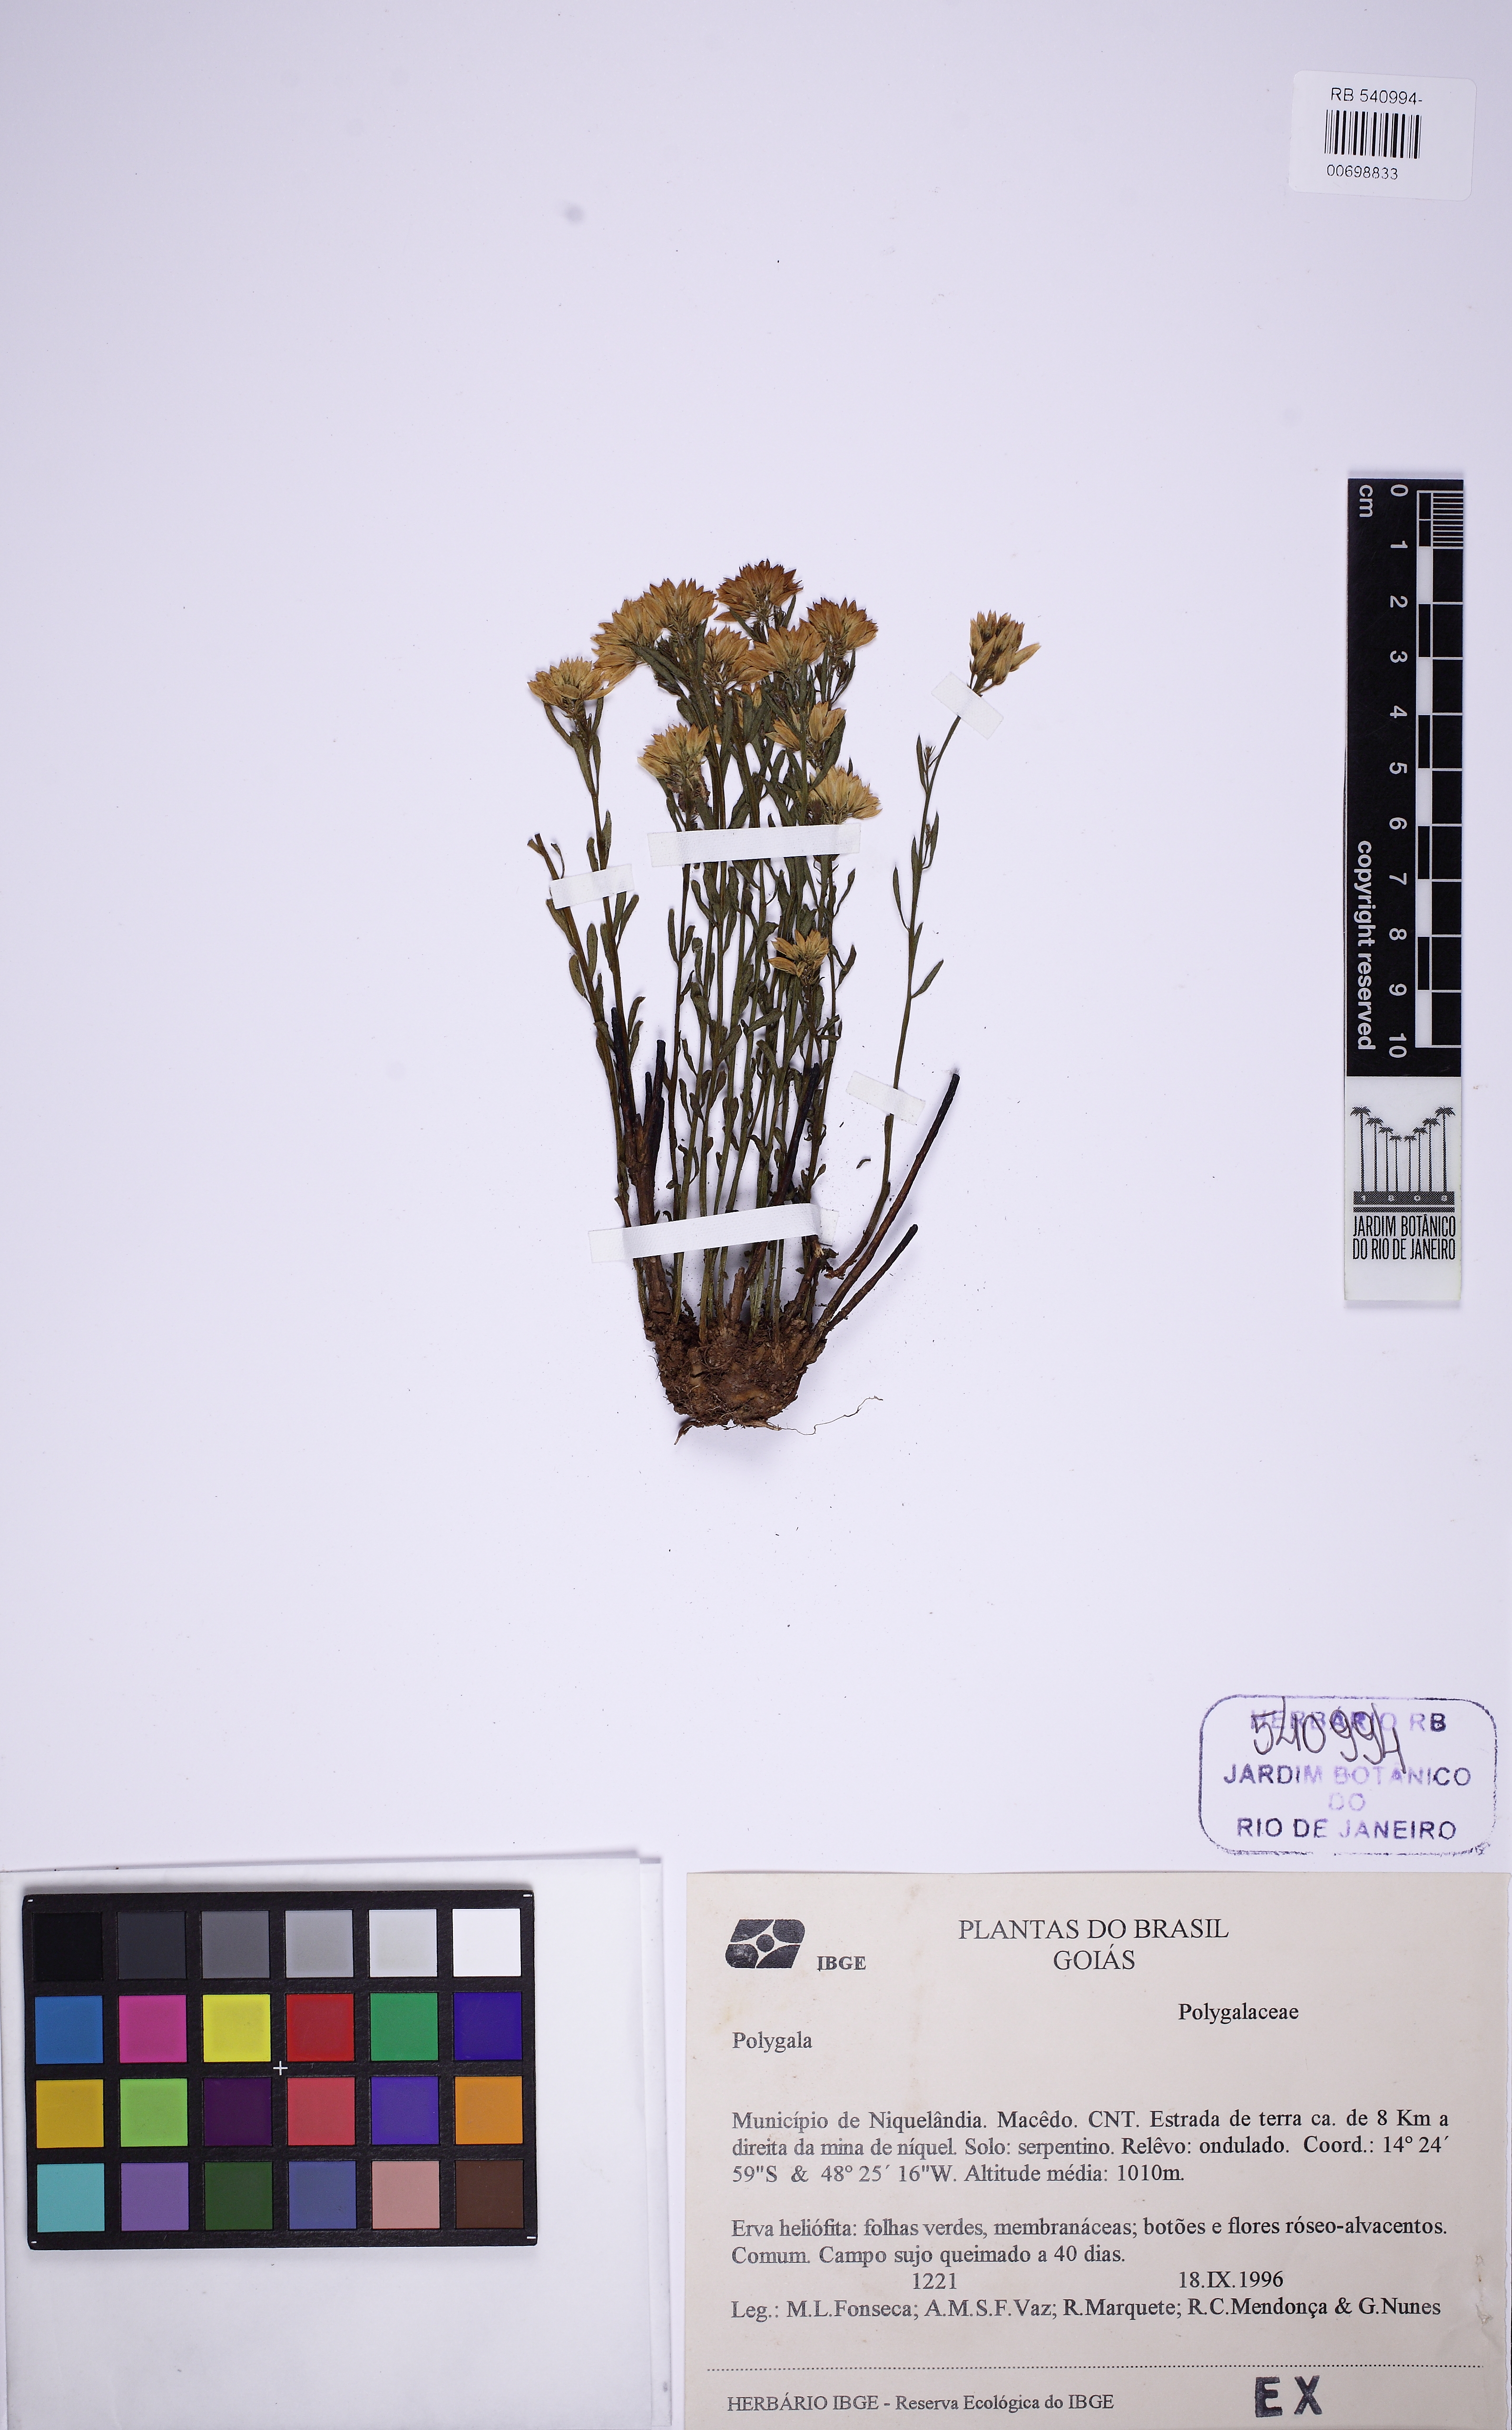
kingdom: Plantae
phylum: Tracheophyta
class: Magnoliopsida
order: Fabales
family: Polygalaceae
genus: Polygala
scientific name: Polygala ustulata
